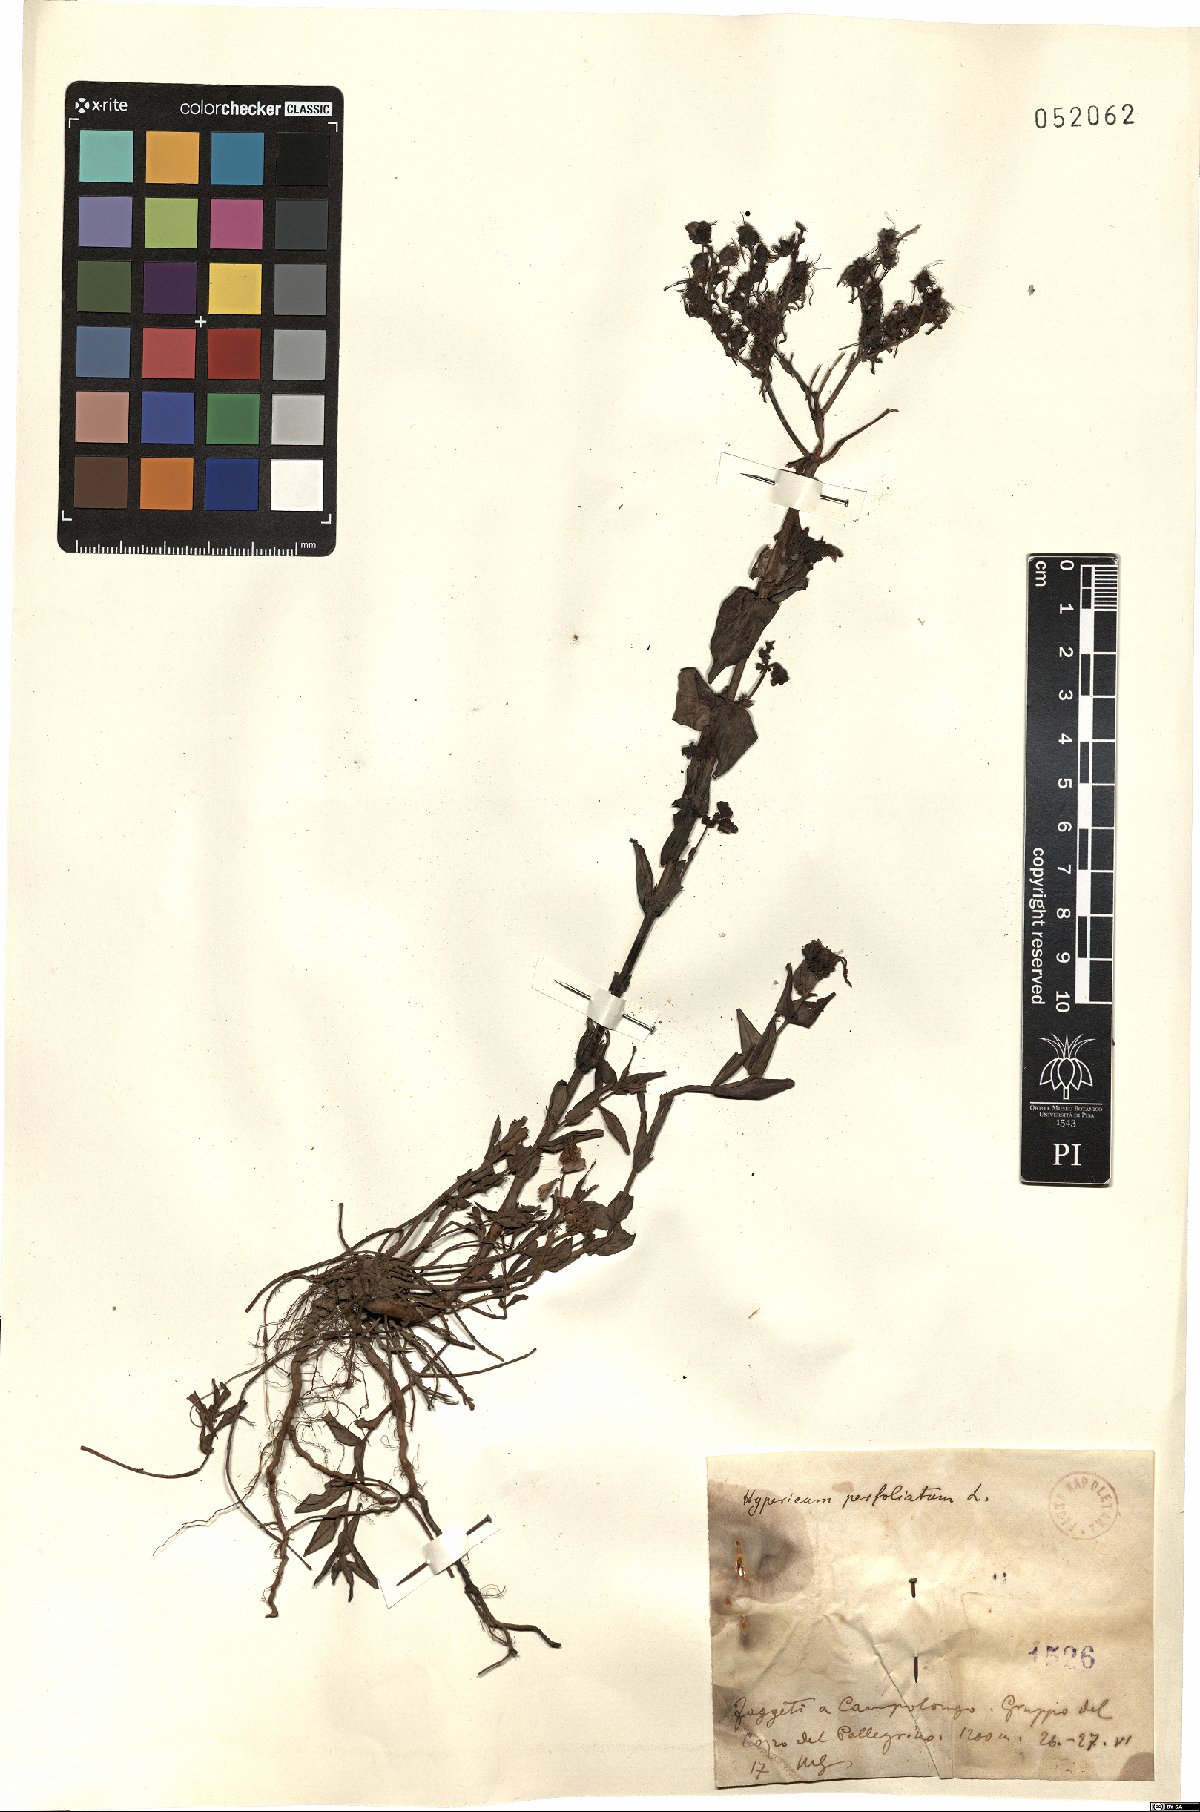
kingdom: Plantae
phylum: Tracheophyta
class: Magnoliopsida
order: Malpighiales
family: Hypericaceae
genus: Hypericum
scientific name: Hypericum perfoliatum
